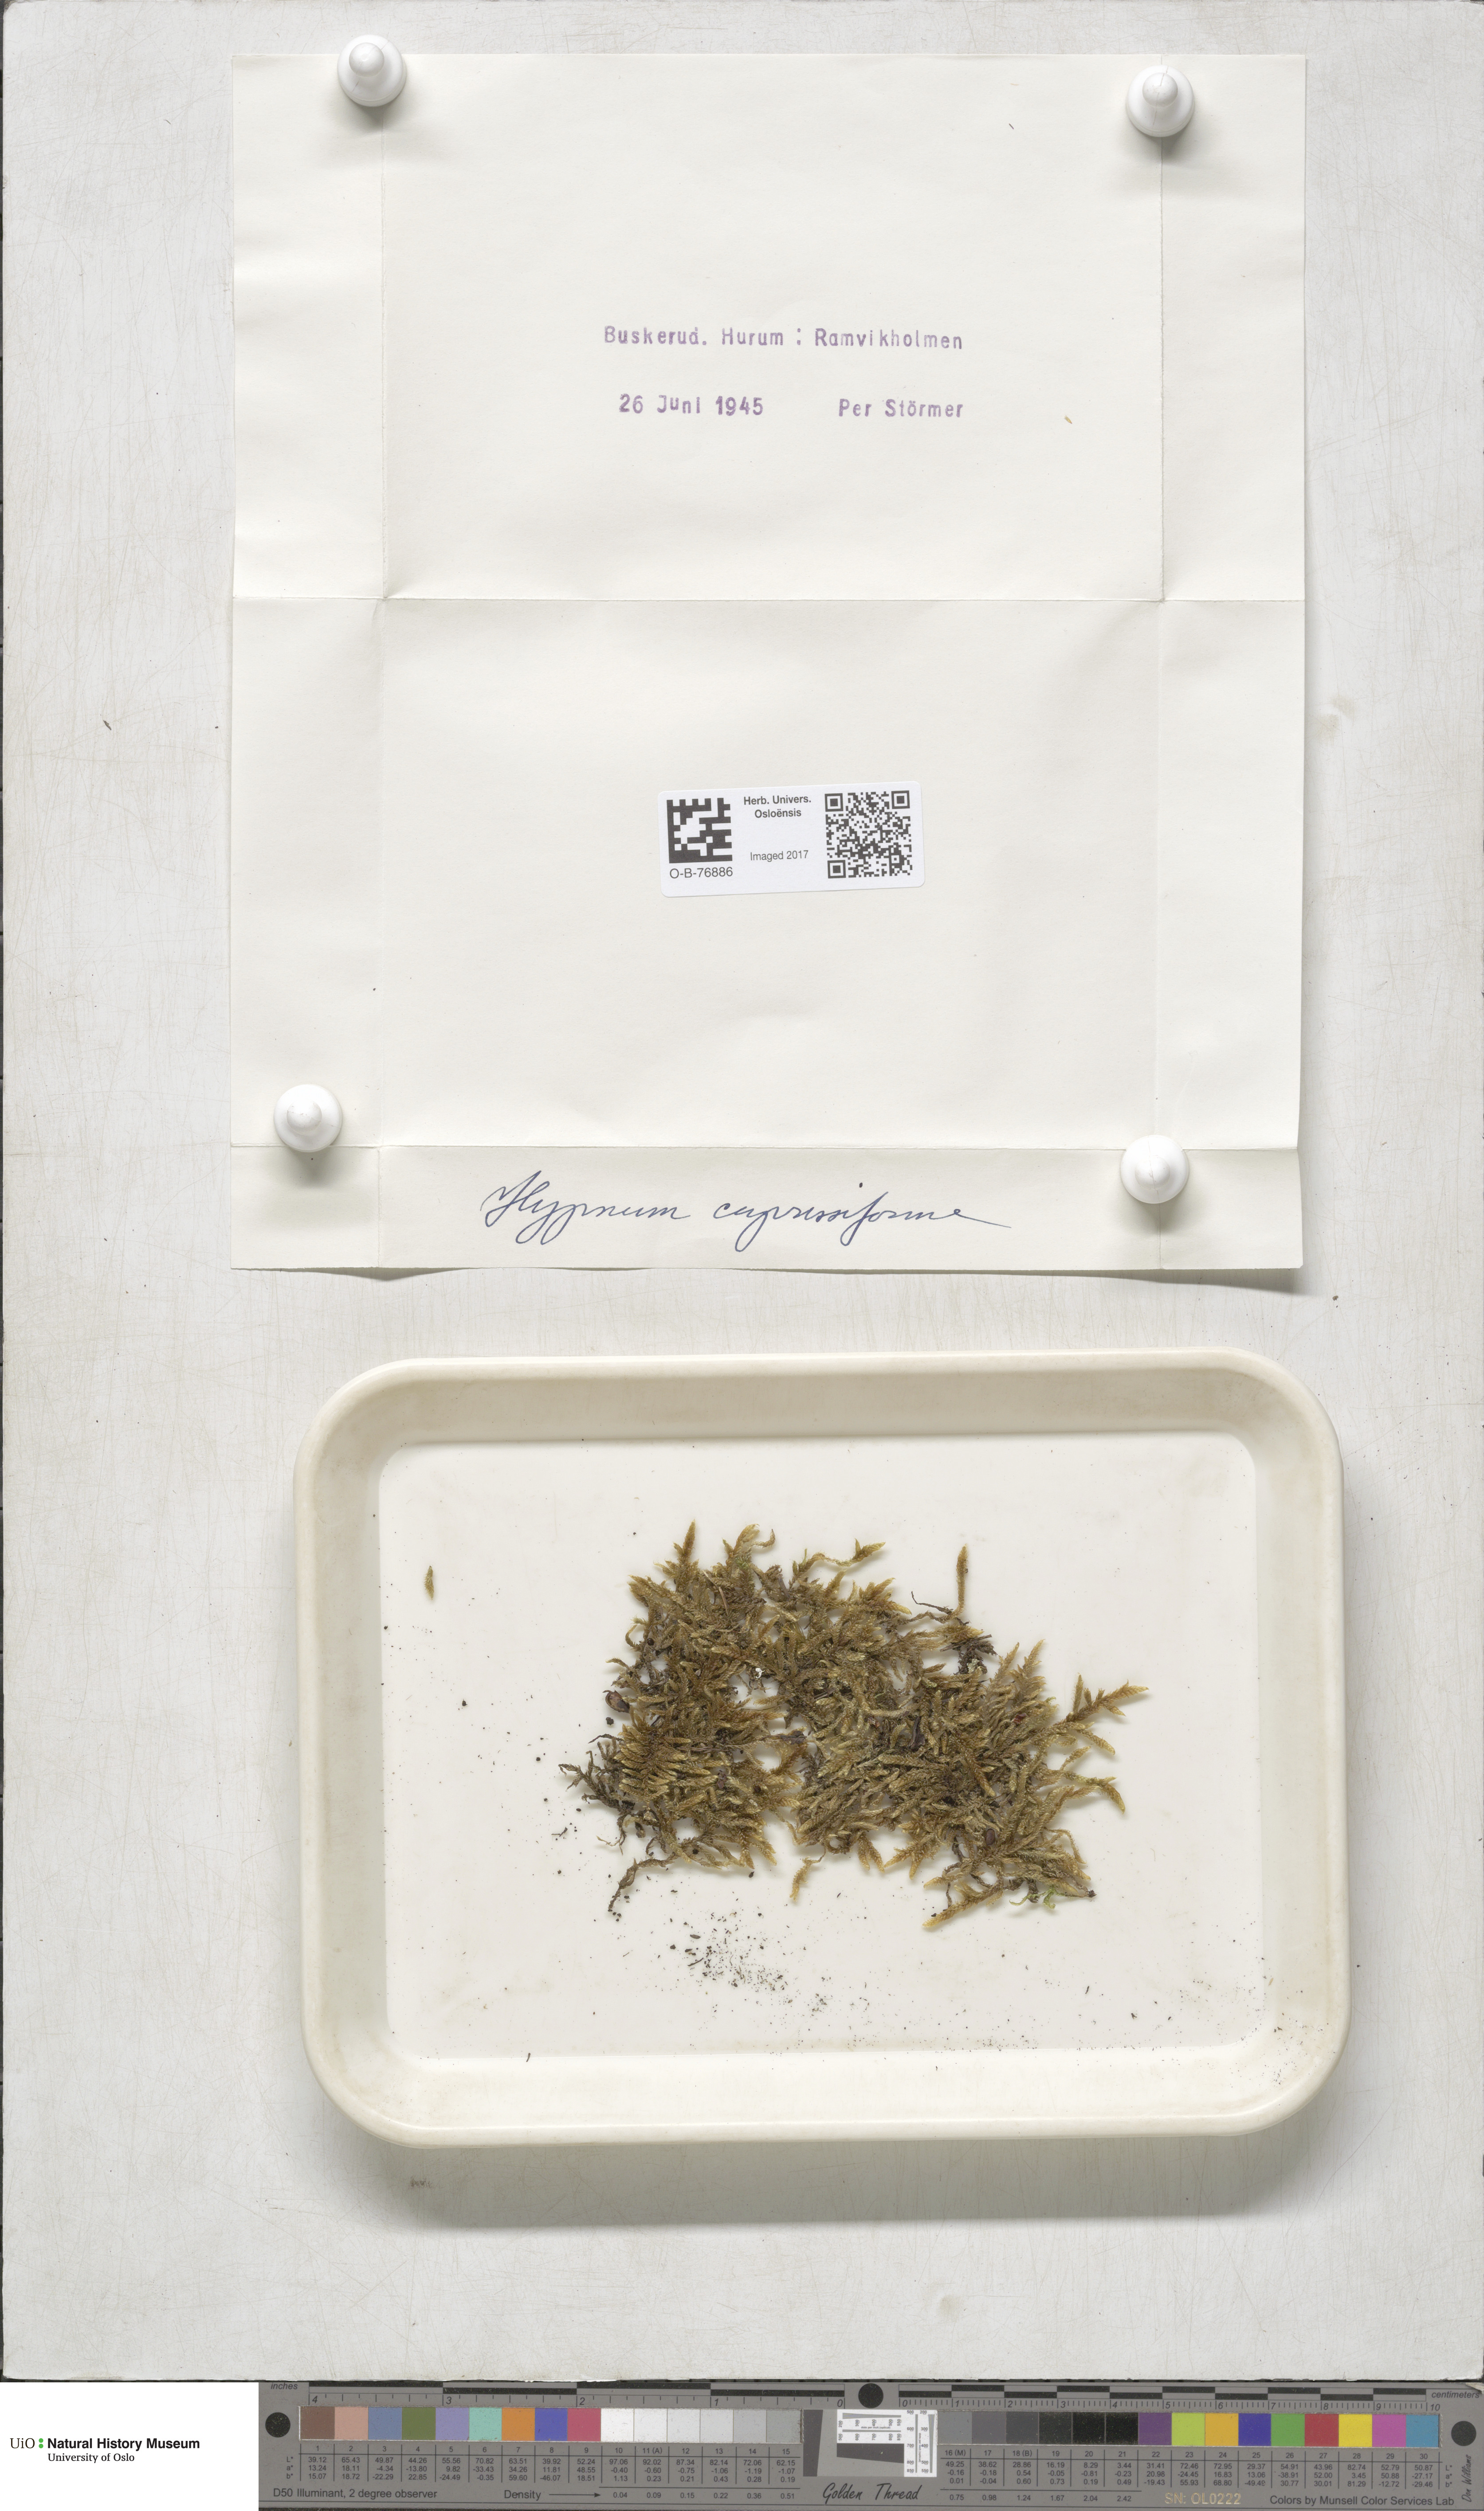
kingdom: Plantae
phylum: Bryophyta
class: Bryopsida
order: Hypnales
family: Hypnaceae
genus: Hypnum
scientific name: Hypnum cupressiforme
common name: Cypress-leaved plait-moss
